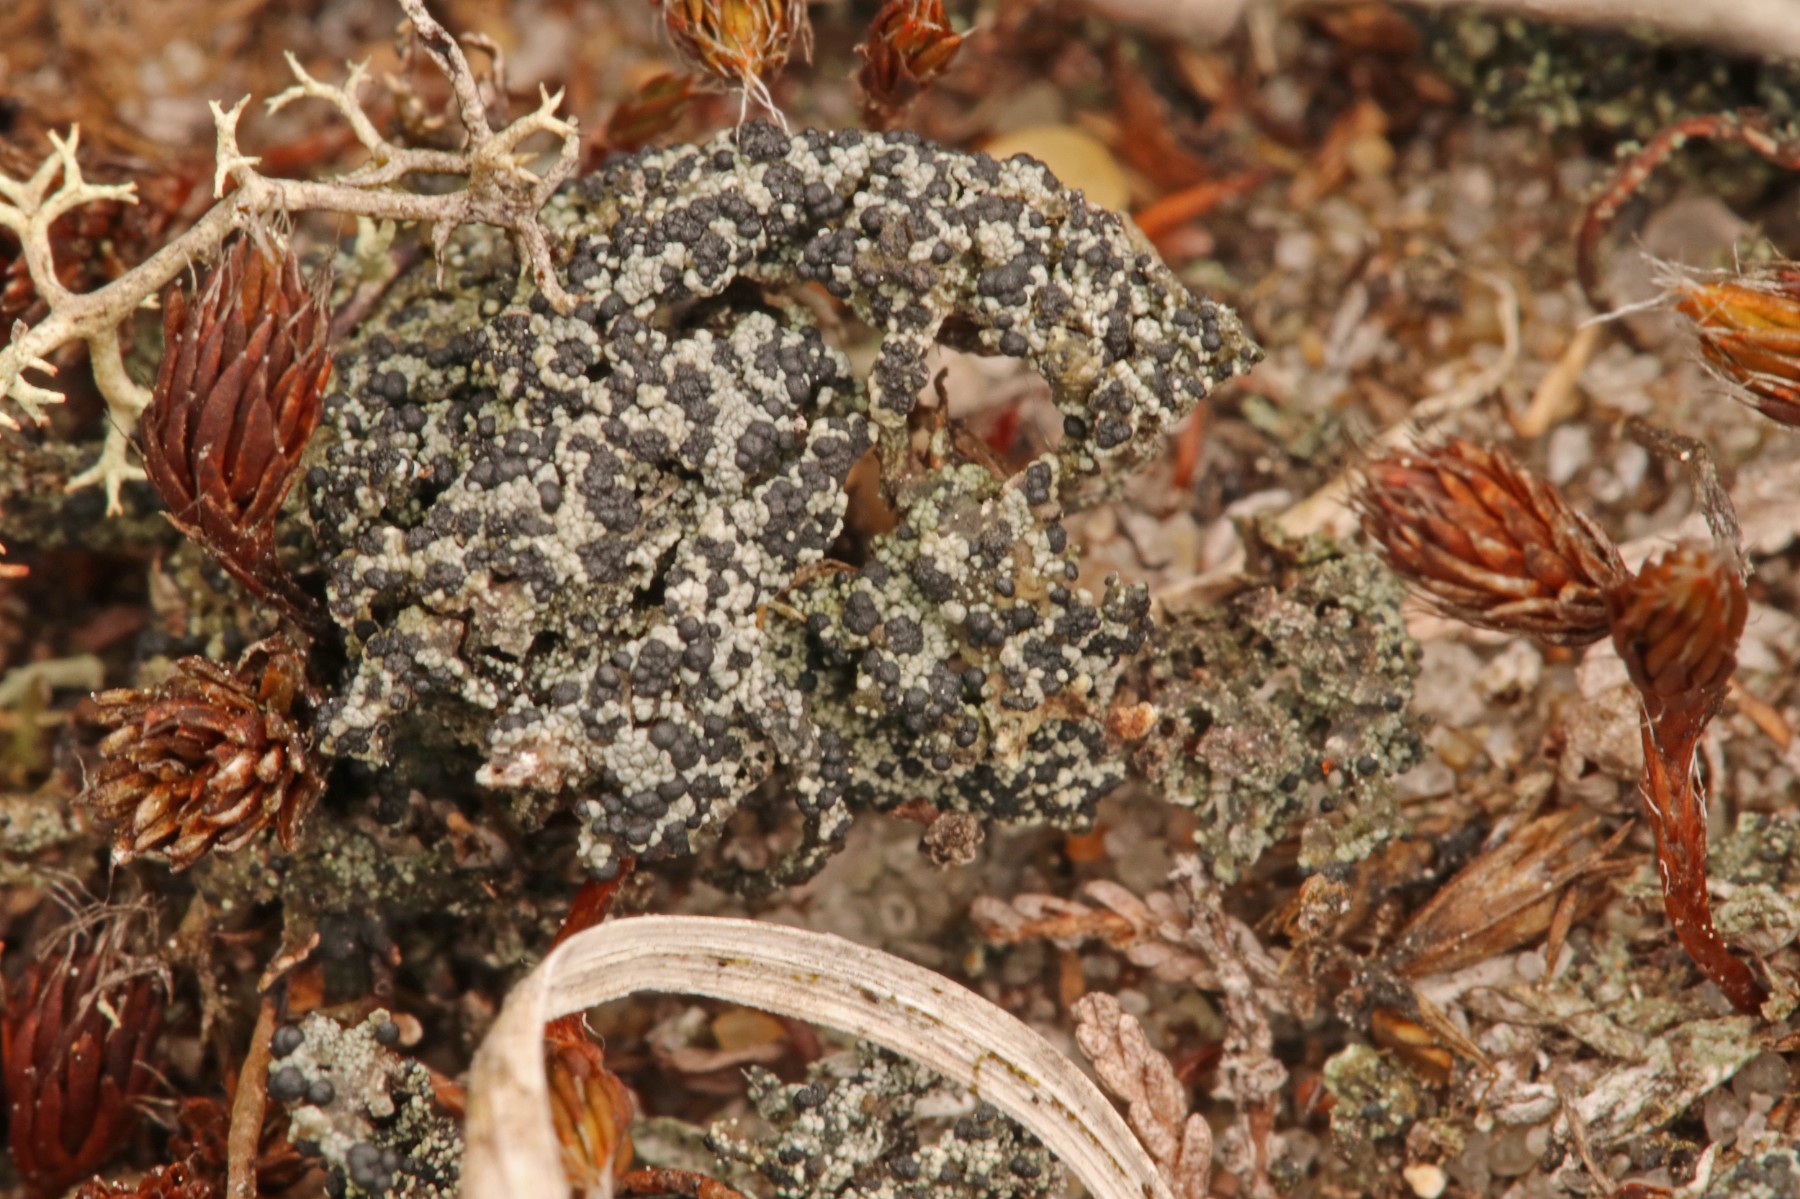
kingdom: Fungi
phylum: Ascomycota
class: Lecanoromycetes
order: Lecanorales
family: Byssolomataceae
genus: Micarea
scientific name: Micarea lignaria
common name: tørve-knaplav
